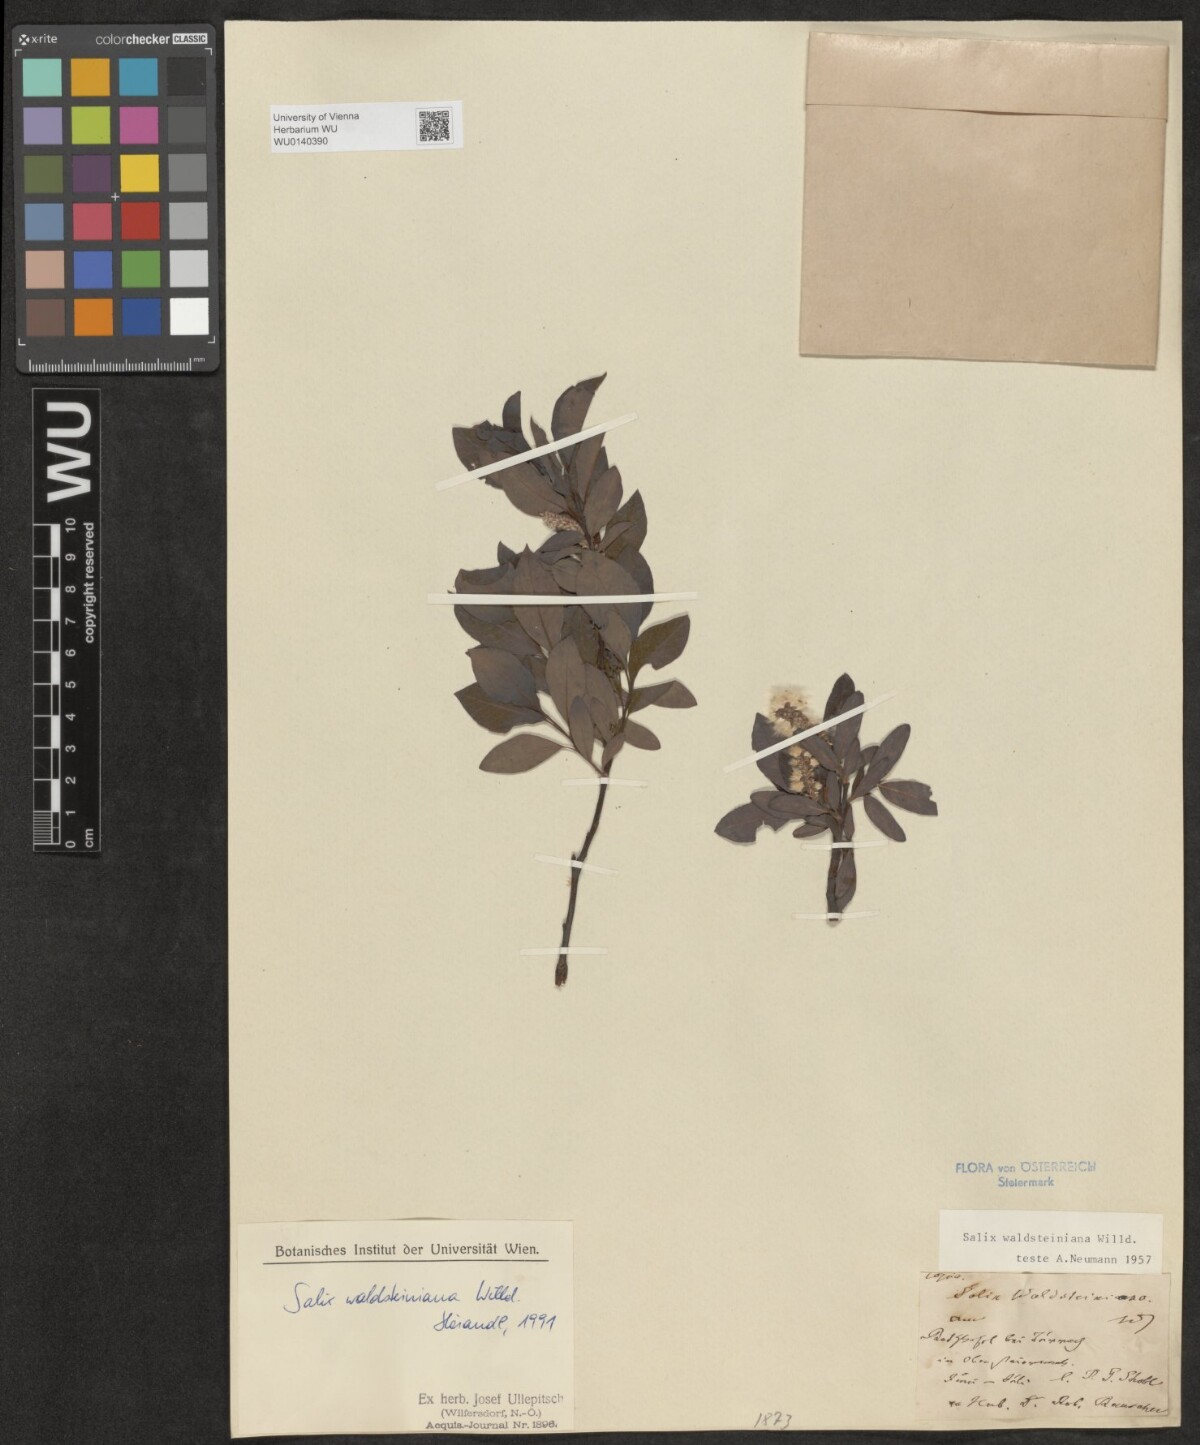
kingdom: Plantae
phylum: Tracheophyta
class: Magnoliopsida
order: Malpighiales
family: Salicaceae
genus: Salix
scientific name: Salix waldsteiniana
